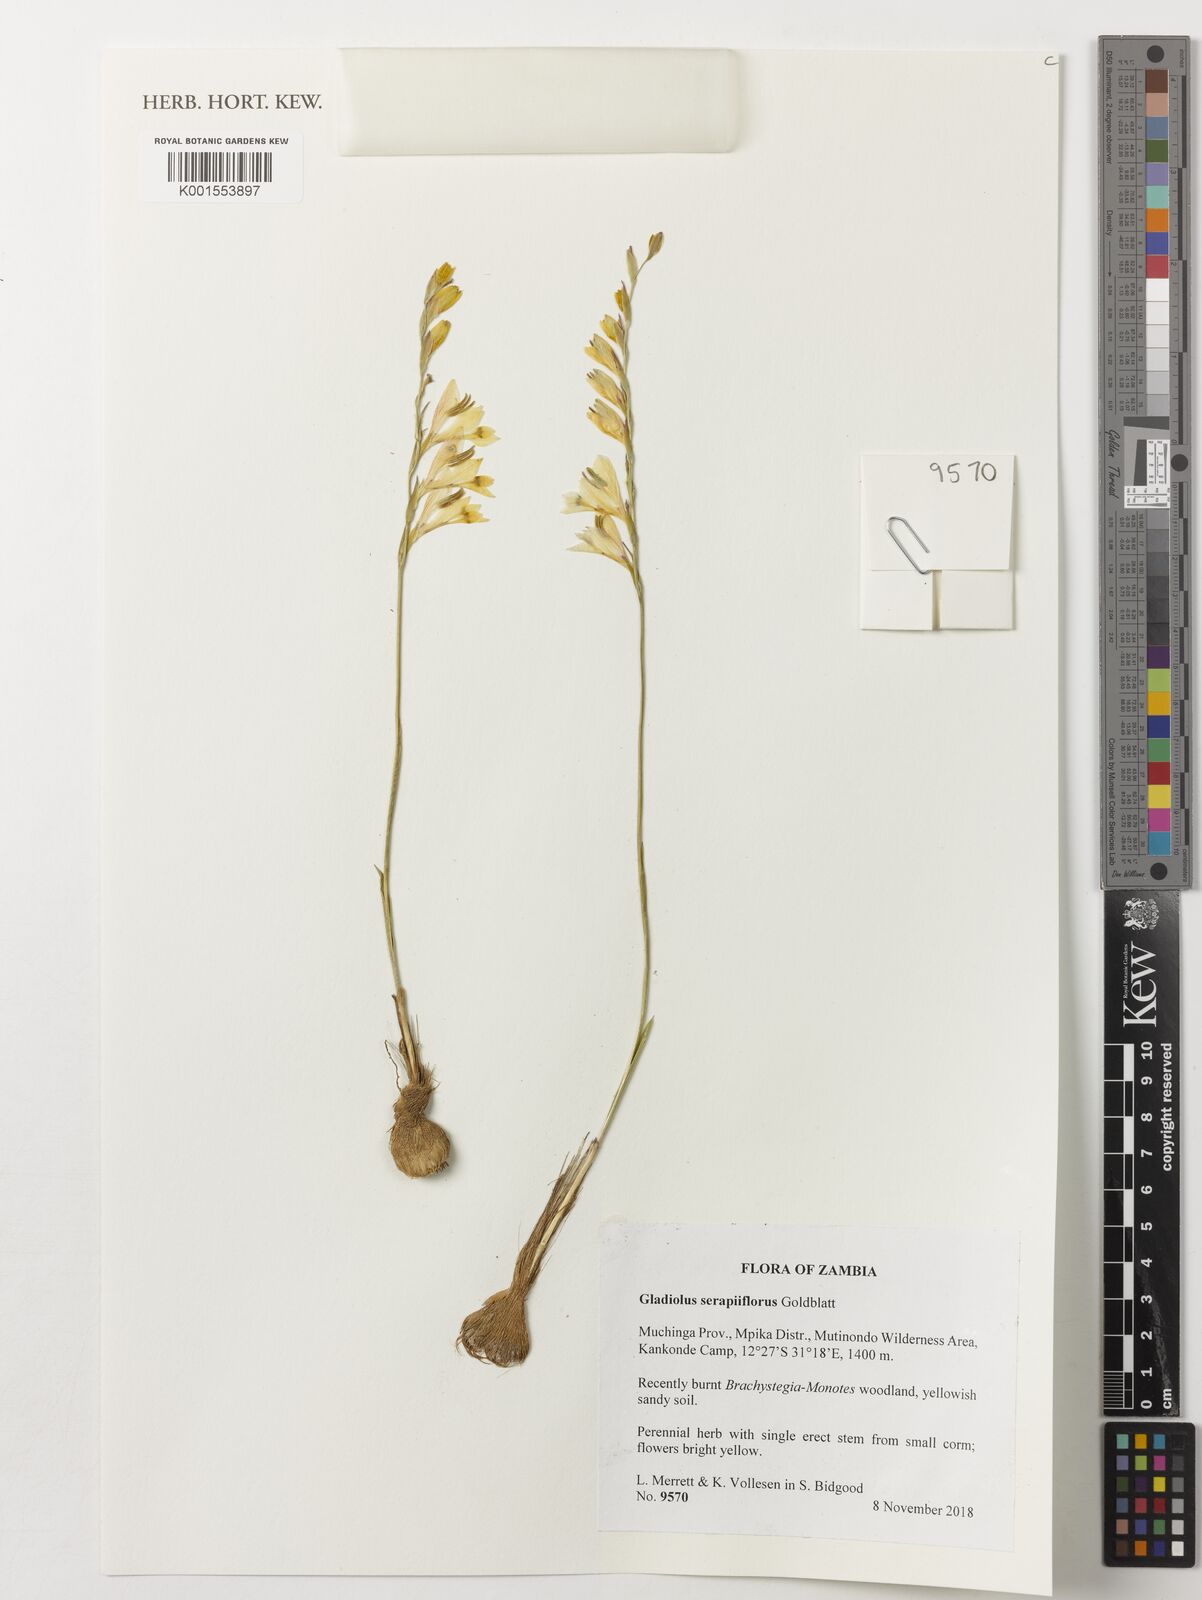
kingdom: Plantae
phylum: Tracheophyta
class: Liliopsida
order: Asparagales
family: Iridaceae
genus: Gladiolus
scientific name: Gladiolus serapiiflorus
